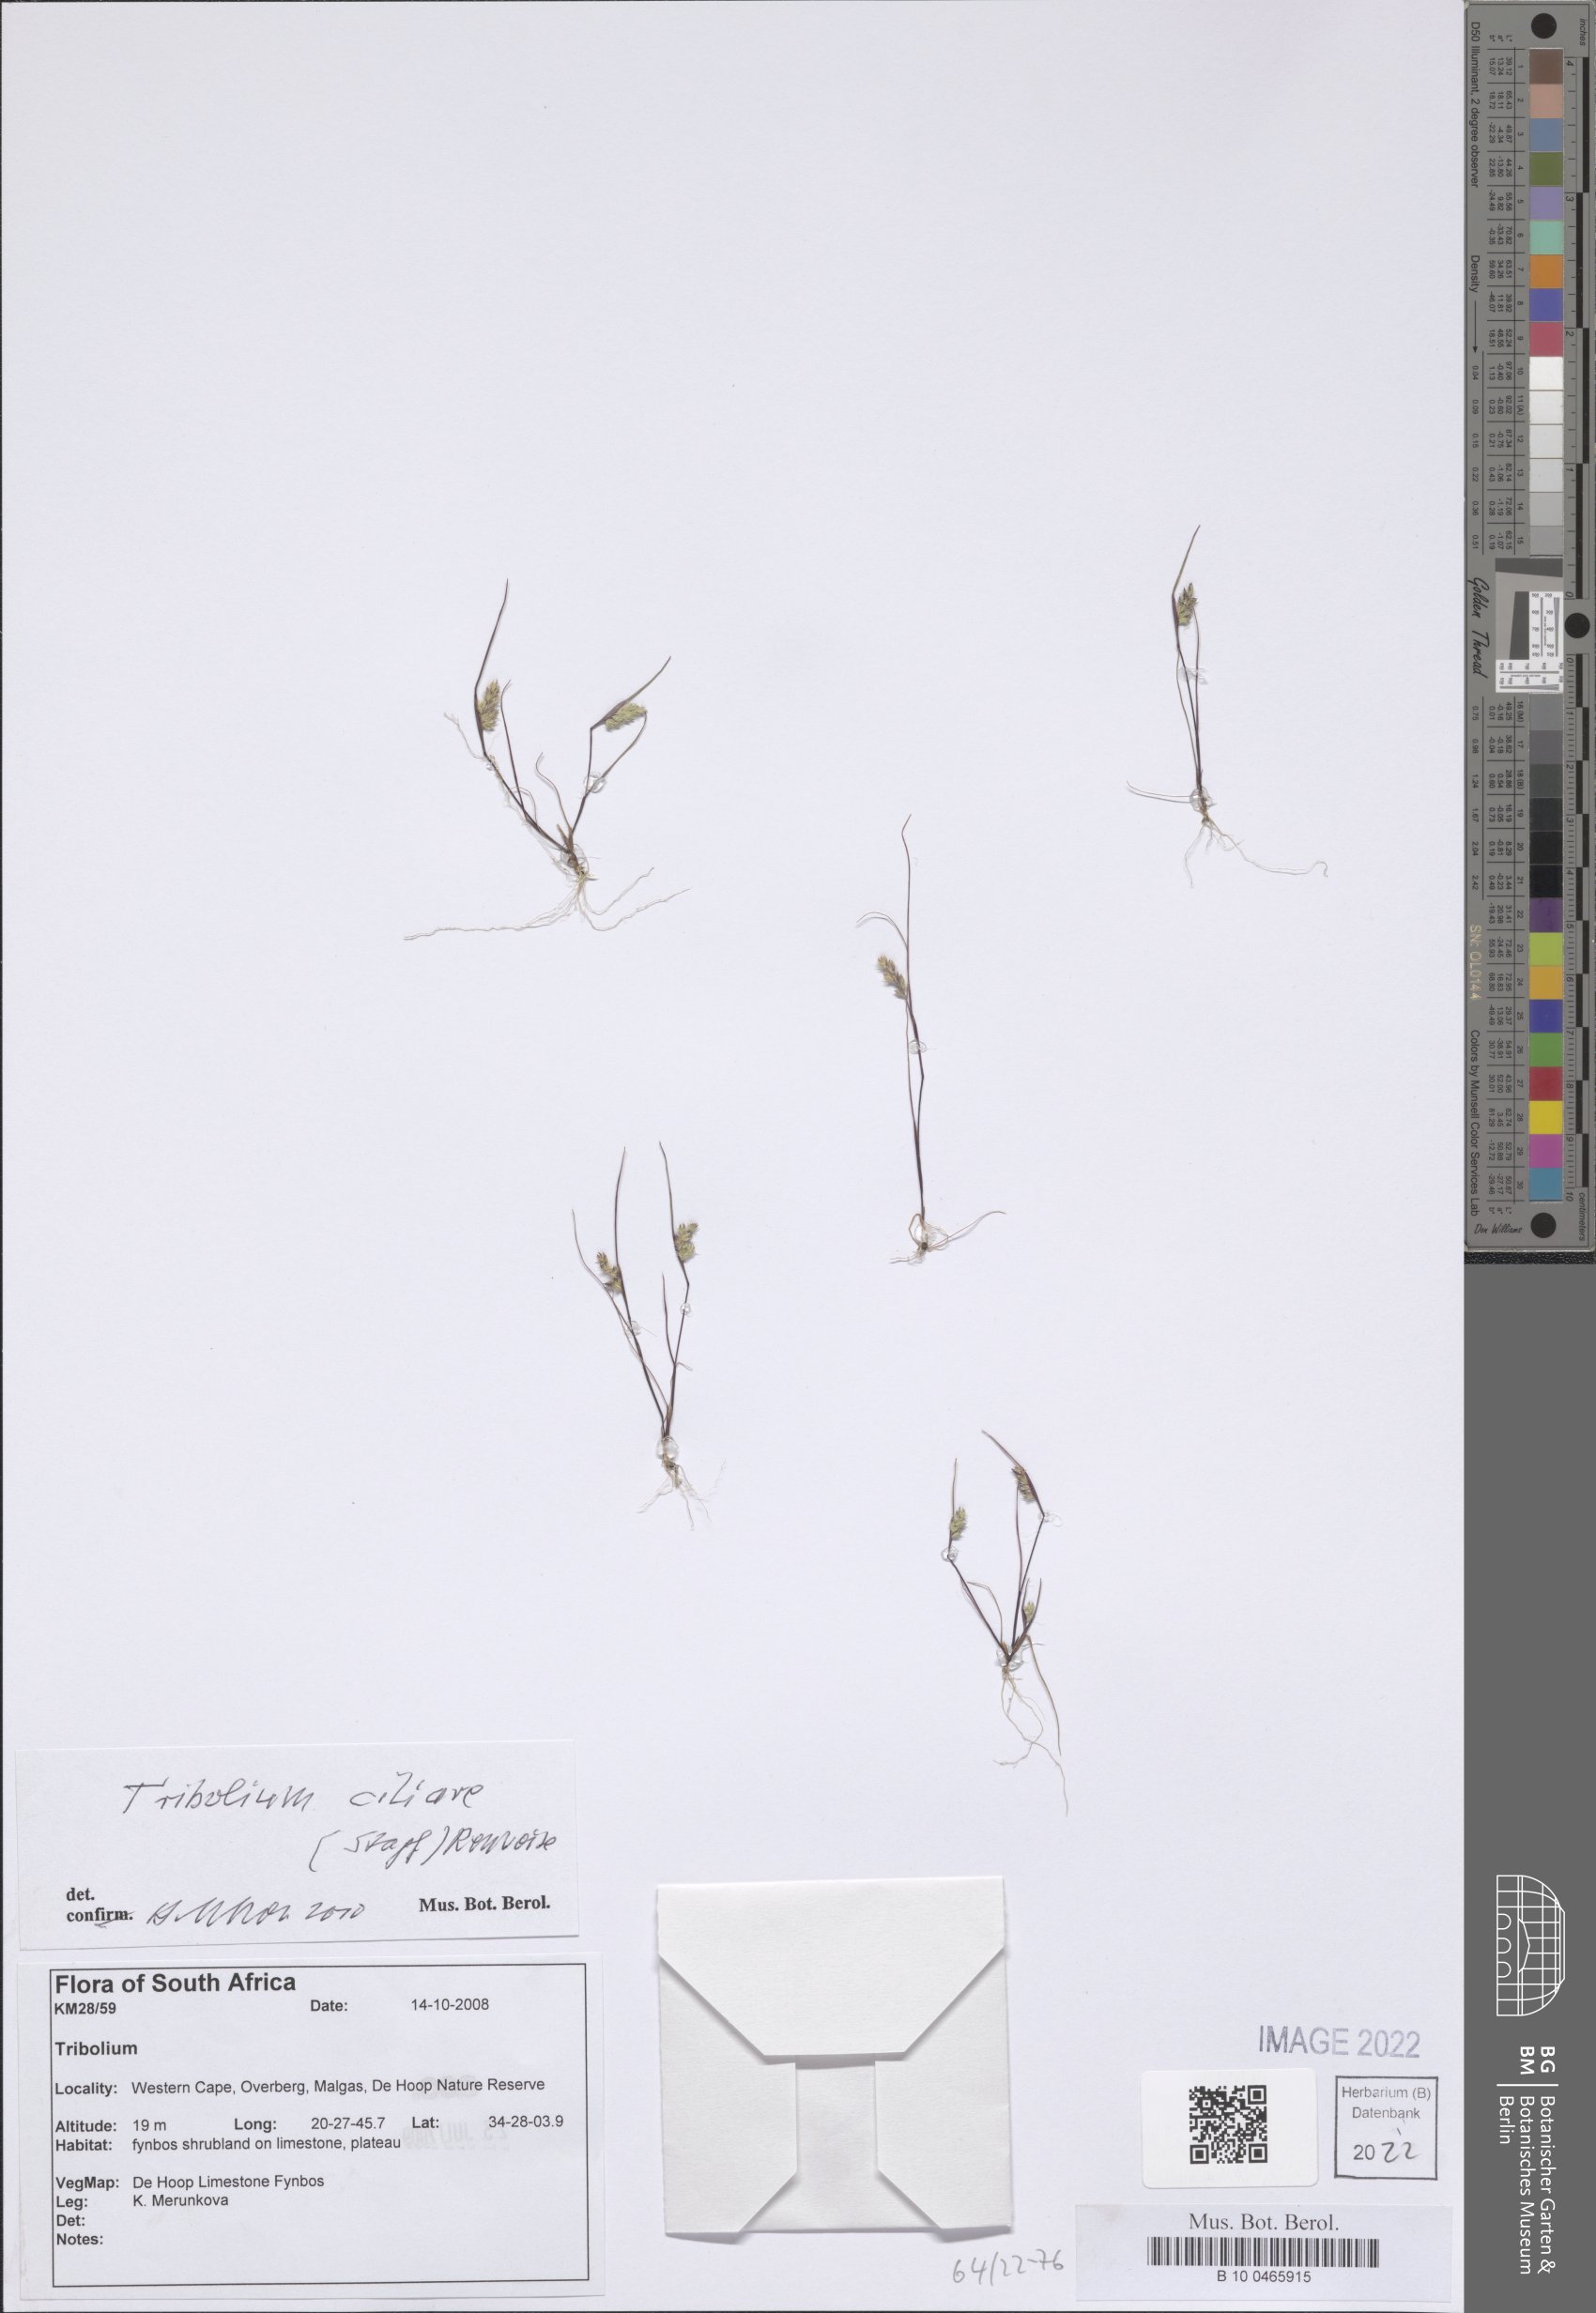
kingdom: Plantae
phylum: Tracheophyta
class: Liliopsida
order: Poales
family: Poaceae
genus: Tribolium
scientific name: Tribolium ciliare
